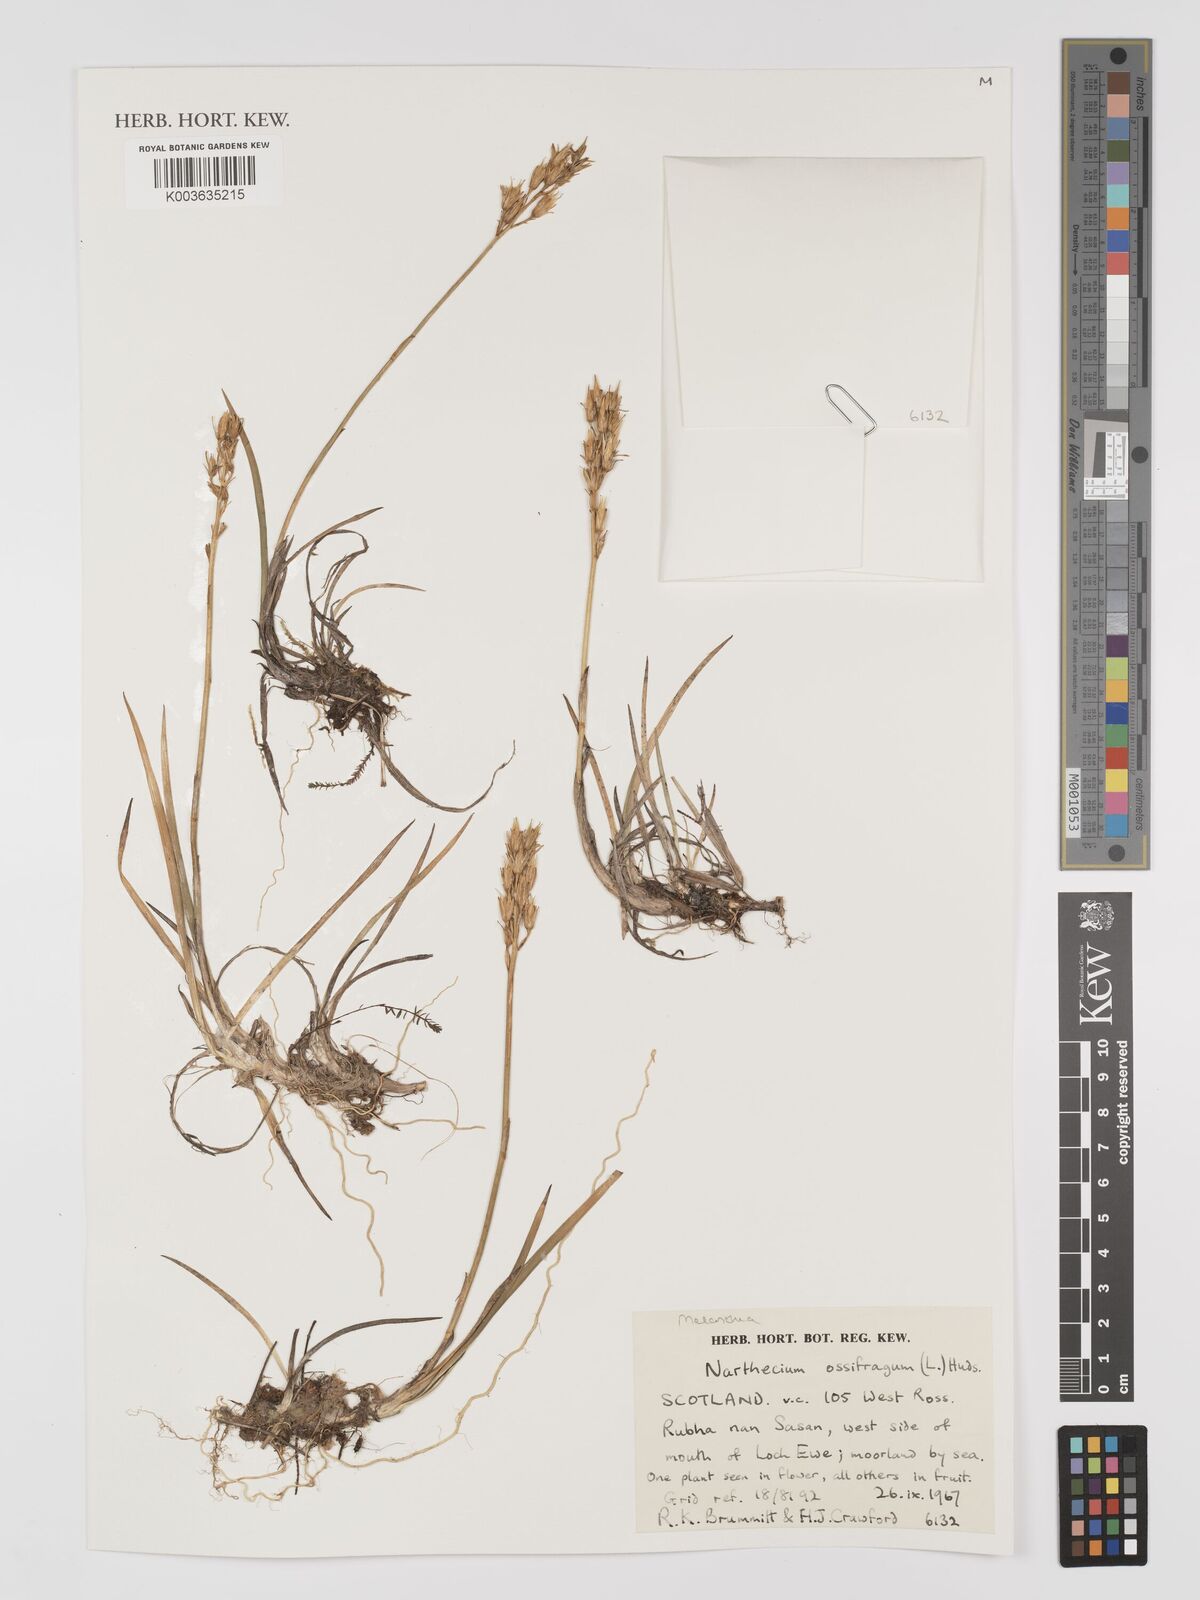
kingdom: Plantae
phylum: Tracheophyta
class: Liliopsida
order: Dioscoreales
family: Nartheciaceae
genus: Narthecium
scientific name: Narthecium
